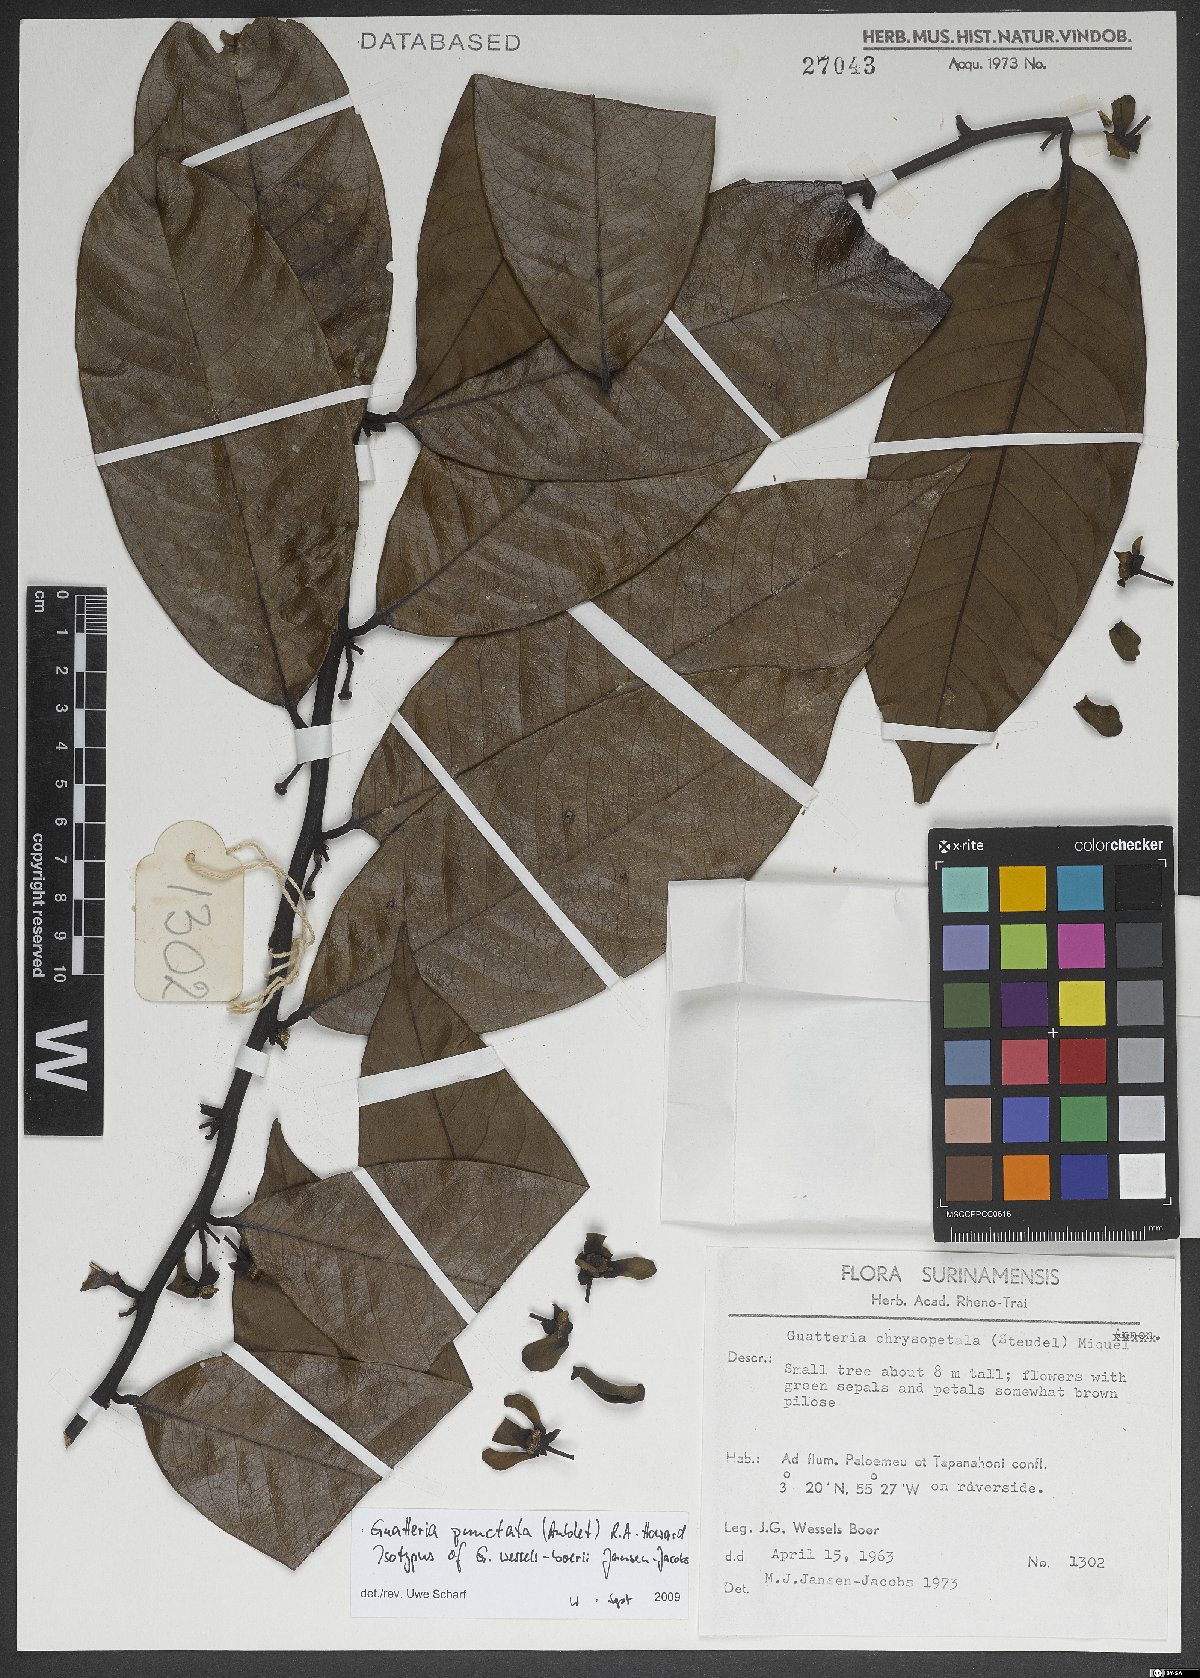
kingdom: Plantae
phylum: Tracheophyta
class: Magnoliopsida
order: Magnoliales
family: Annonaceae
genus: Guatteria
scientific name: Guatteria punctata
